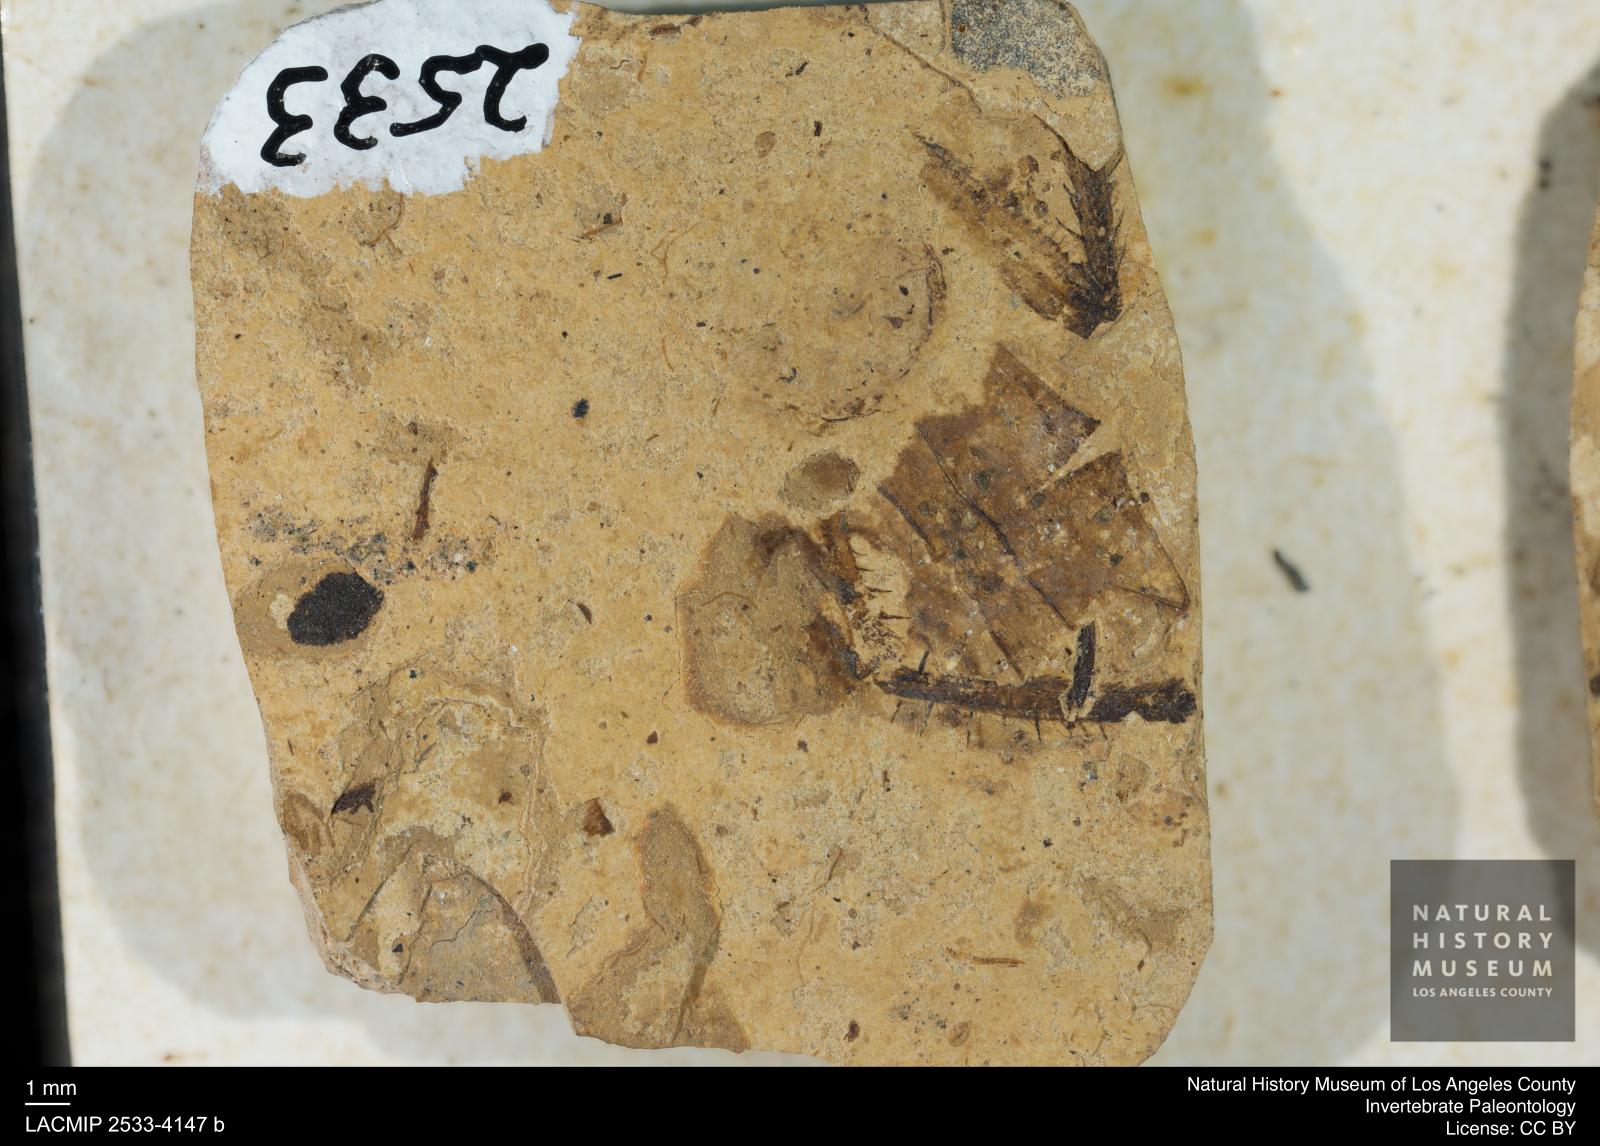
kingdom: Animalia
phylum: Arthropoda
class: Insecta
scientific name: Insecta
